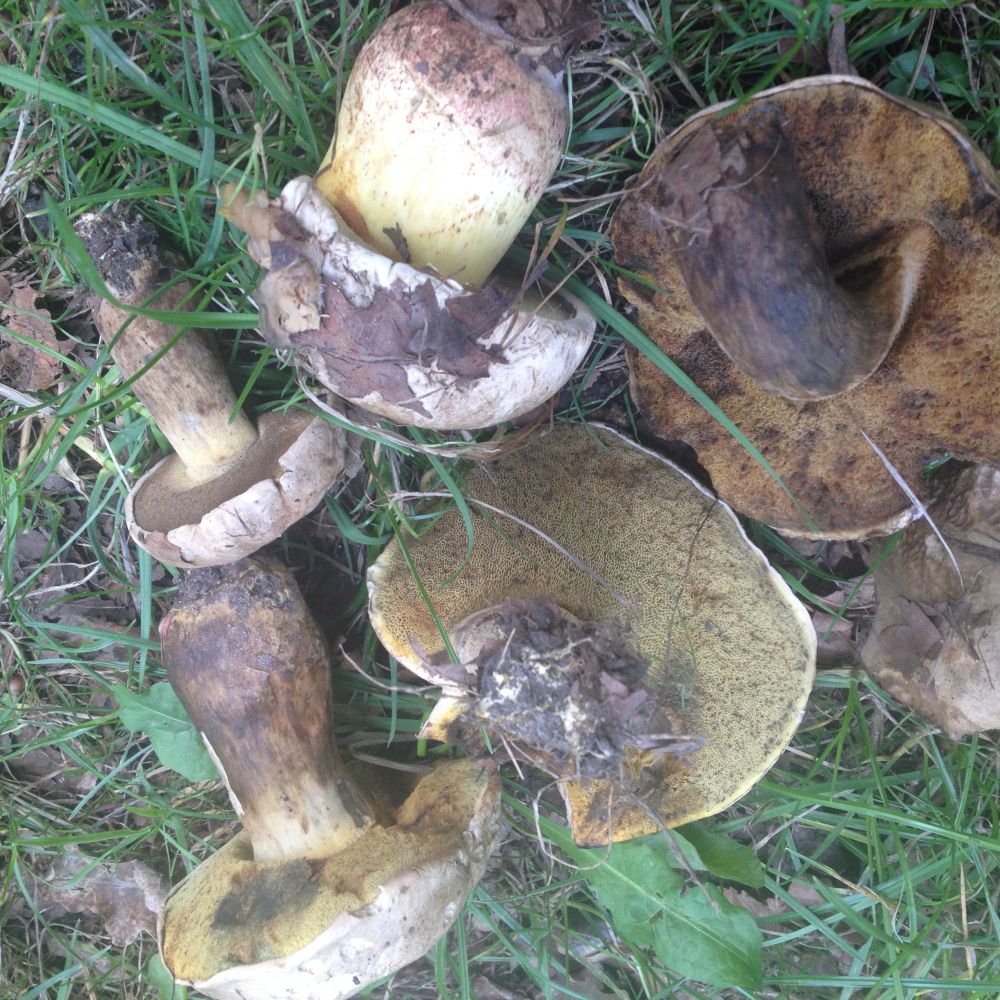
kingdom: Fungi
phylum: Basidiomycota
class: Agaricomycetes
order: Boletales
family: Boletaceae
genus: Caloboletus
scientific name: Caloboletus radicans
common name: rod-rørhat
